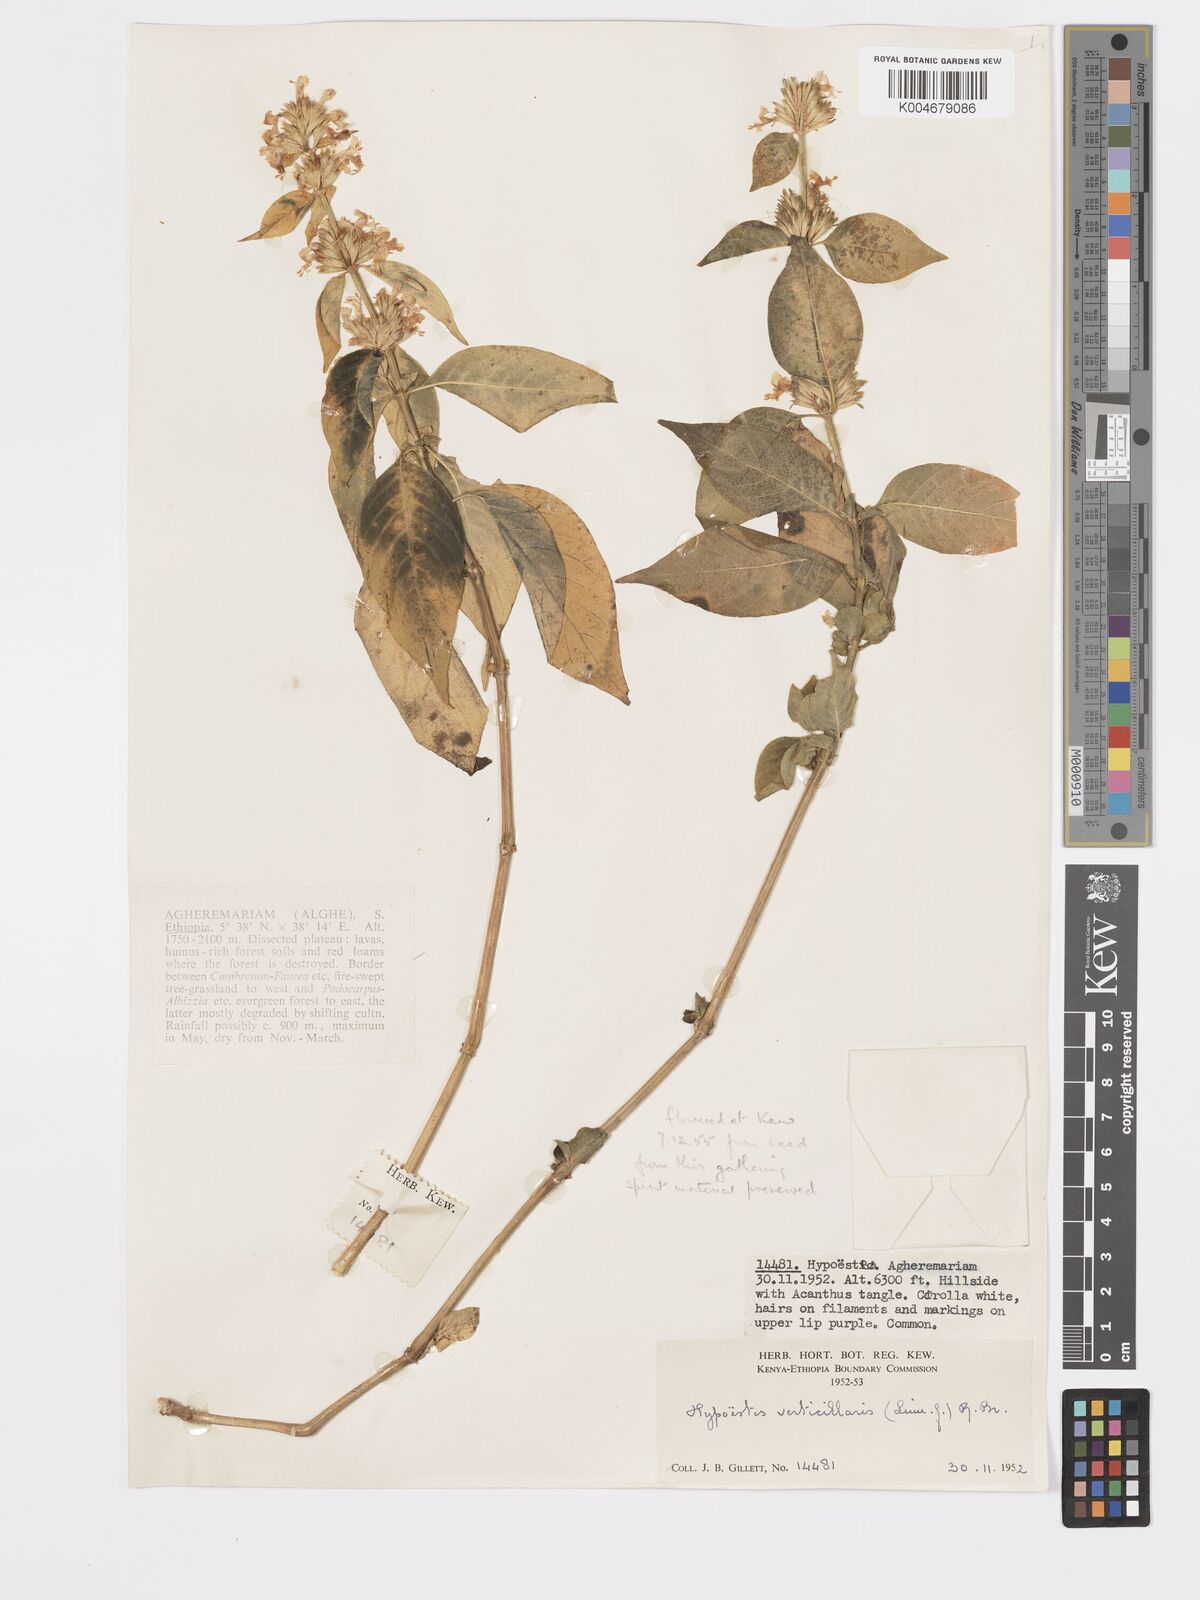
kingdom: Plantae
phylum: Tracheophyta
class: Magnoliopsida
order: Lamiales
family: Acanthaceae
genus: Hypoestes
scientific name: Hypoestes forskaolii
